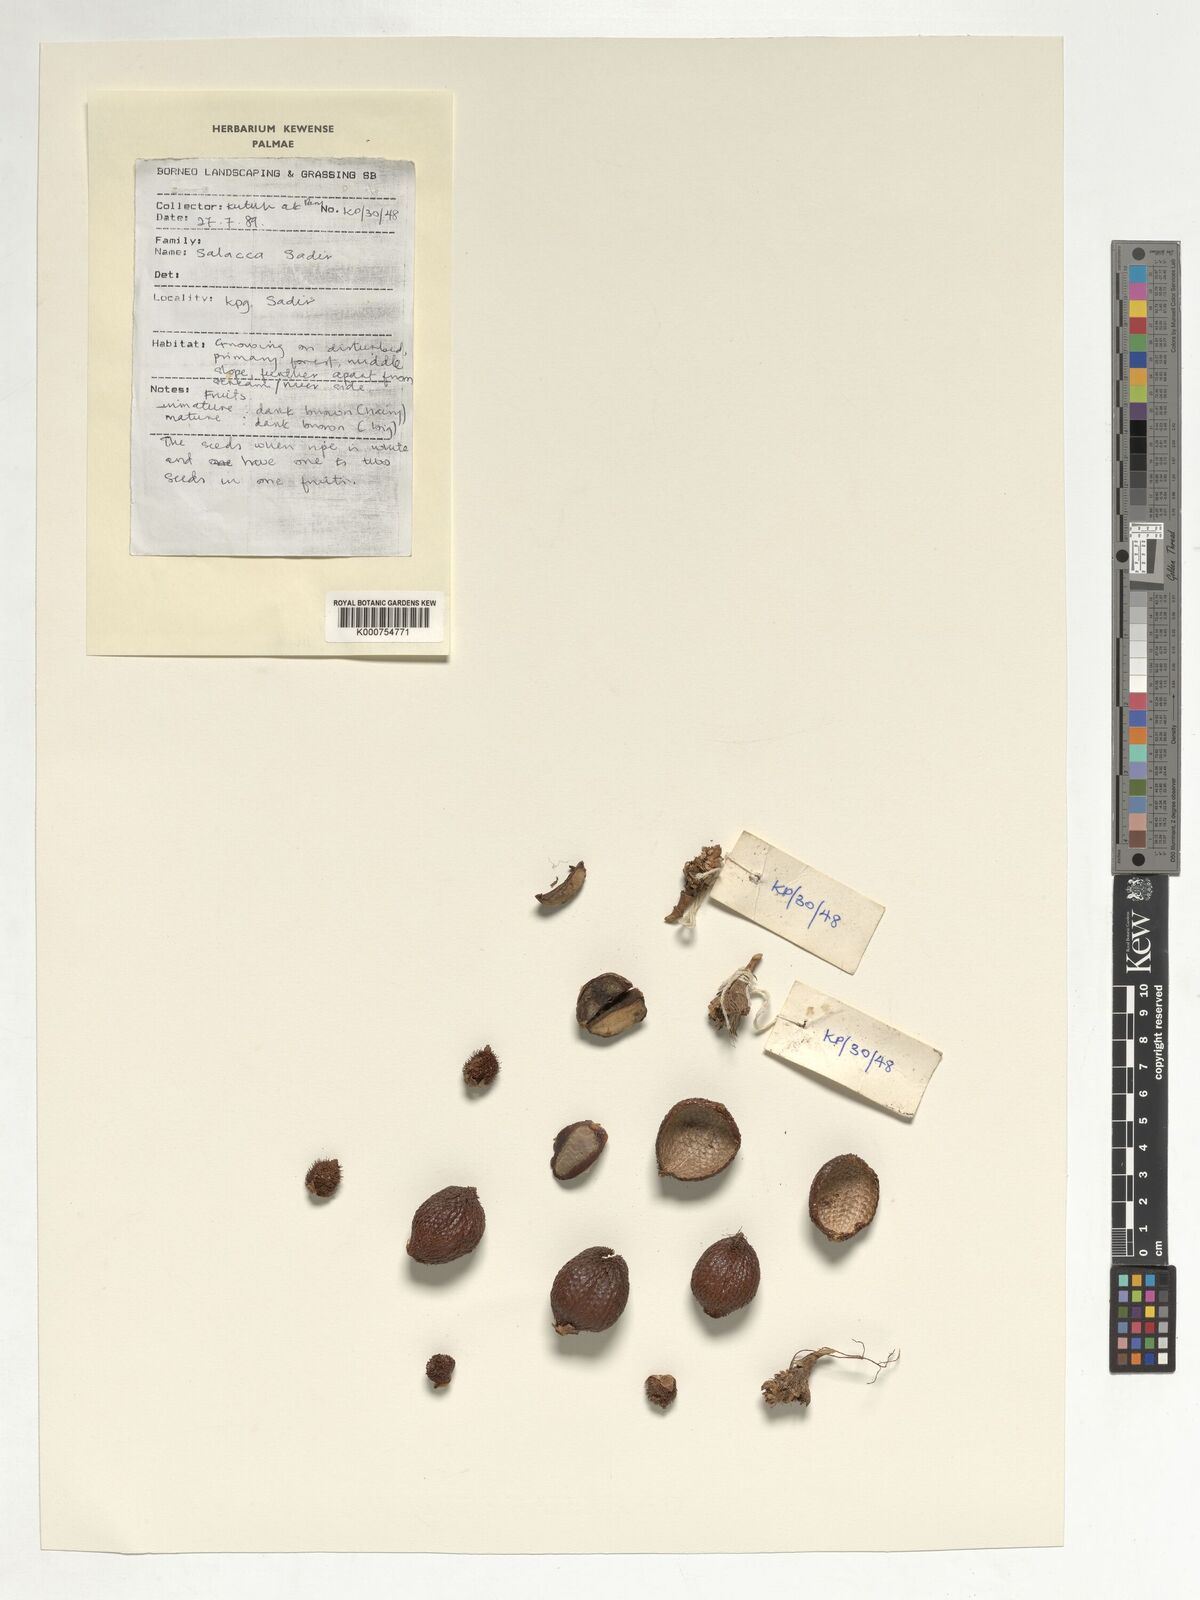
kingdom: Plantae
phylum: Tracheophyta
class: Liliopsida
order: Arecales
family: Arecaceae
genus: Salacca
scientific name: Salacca
